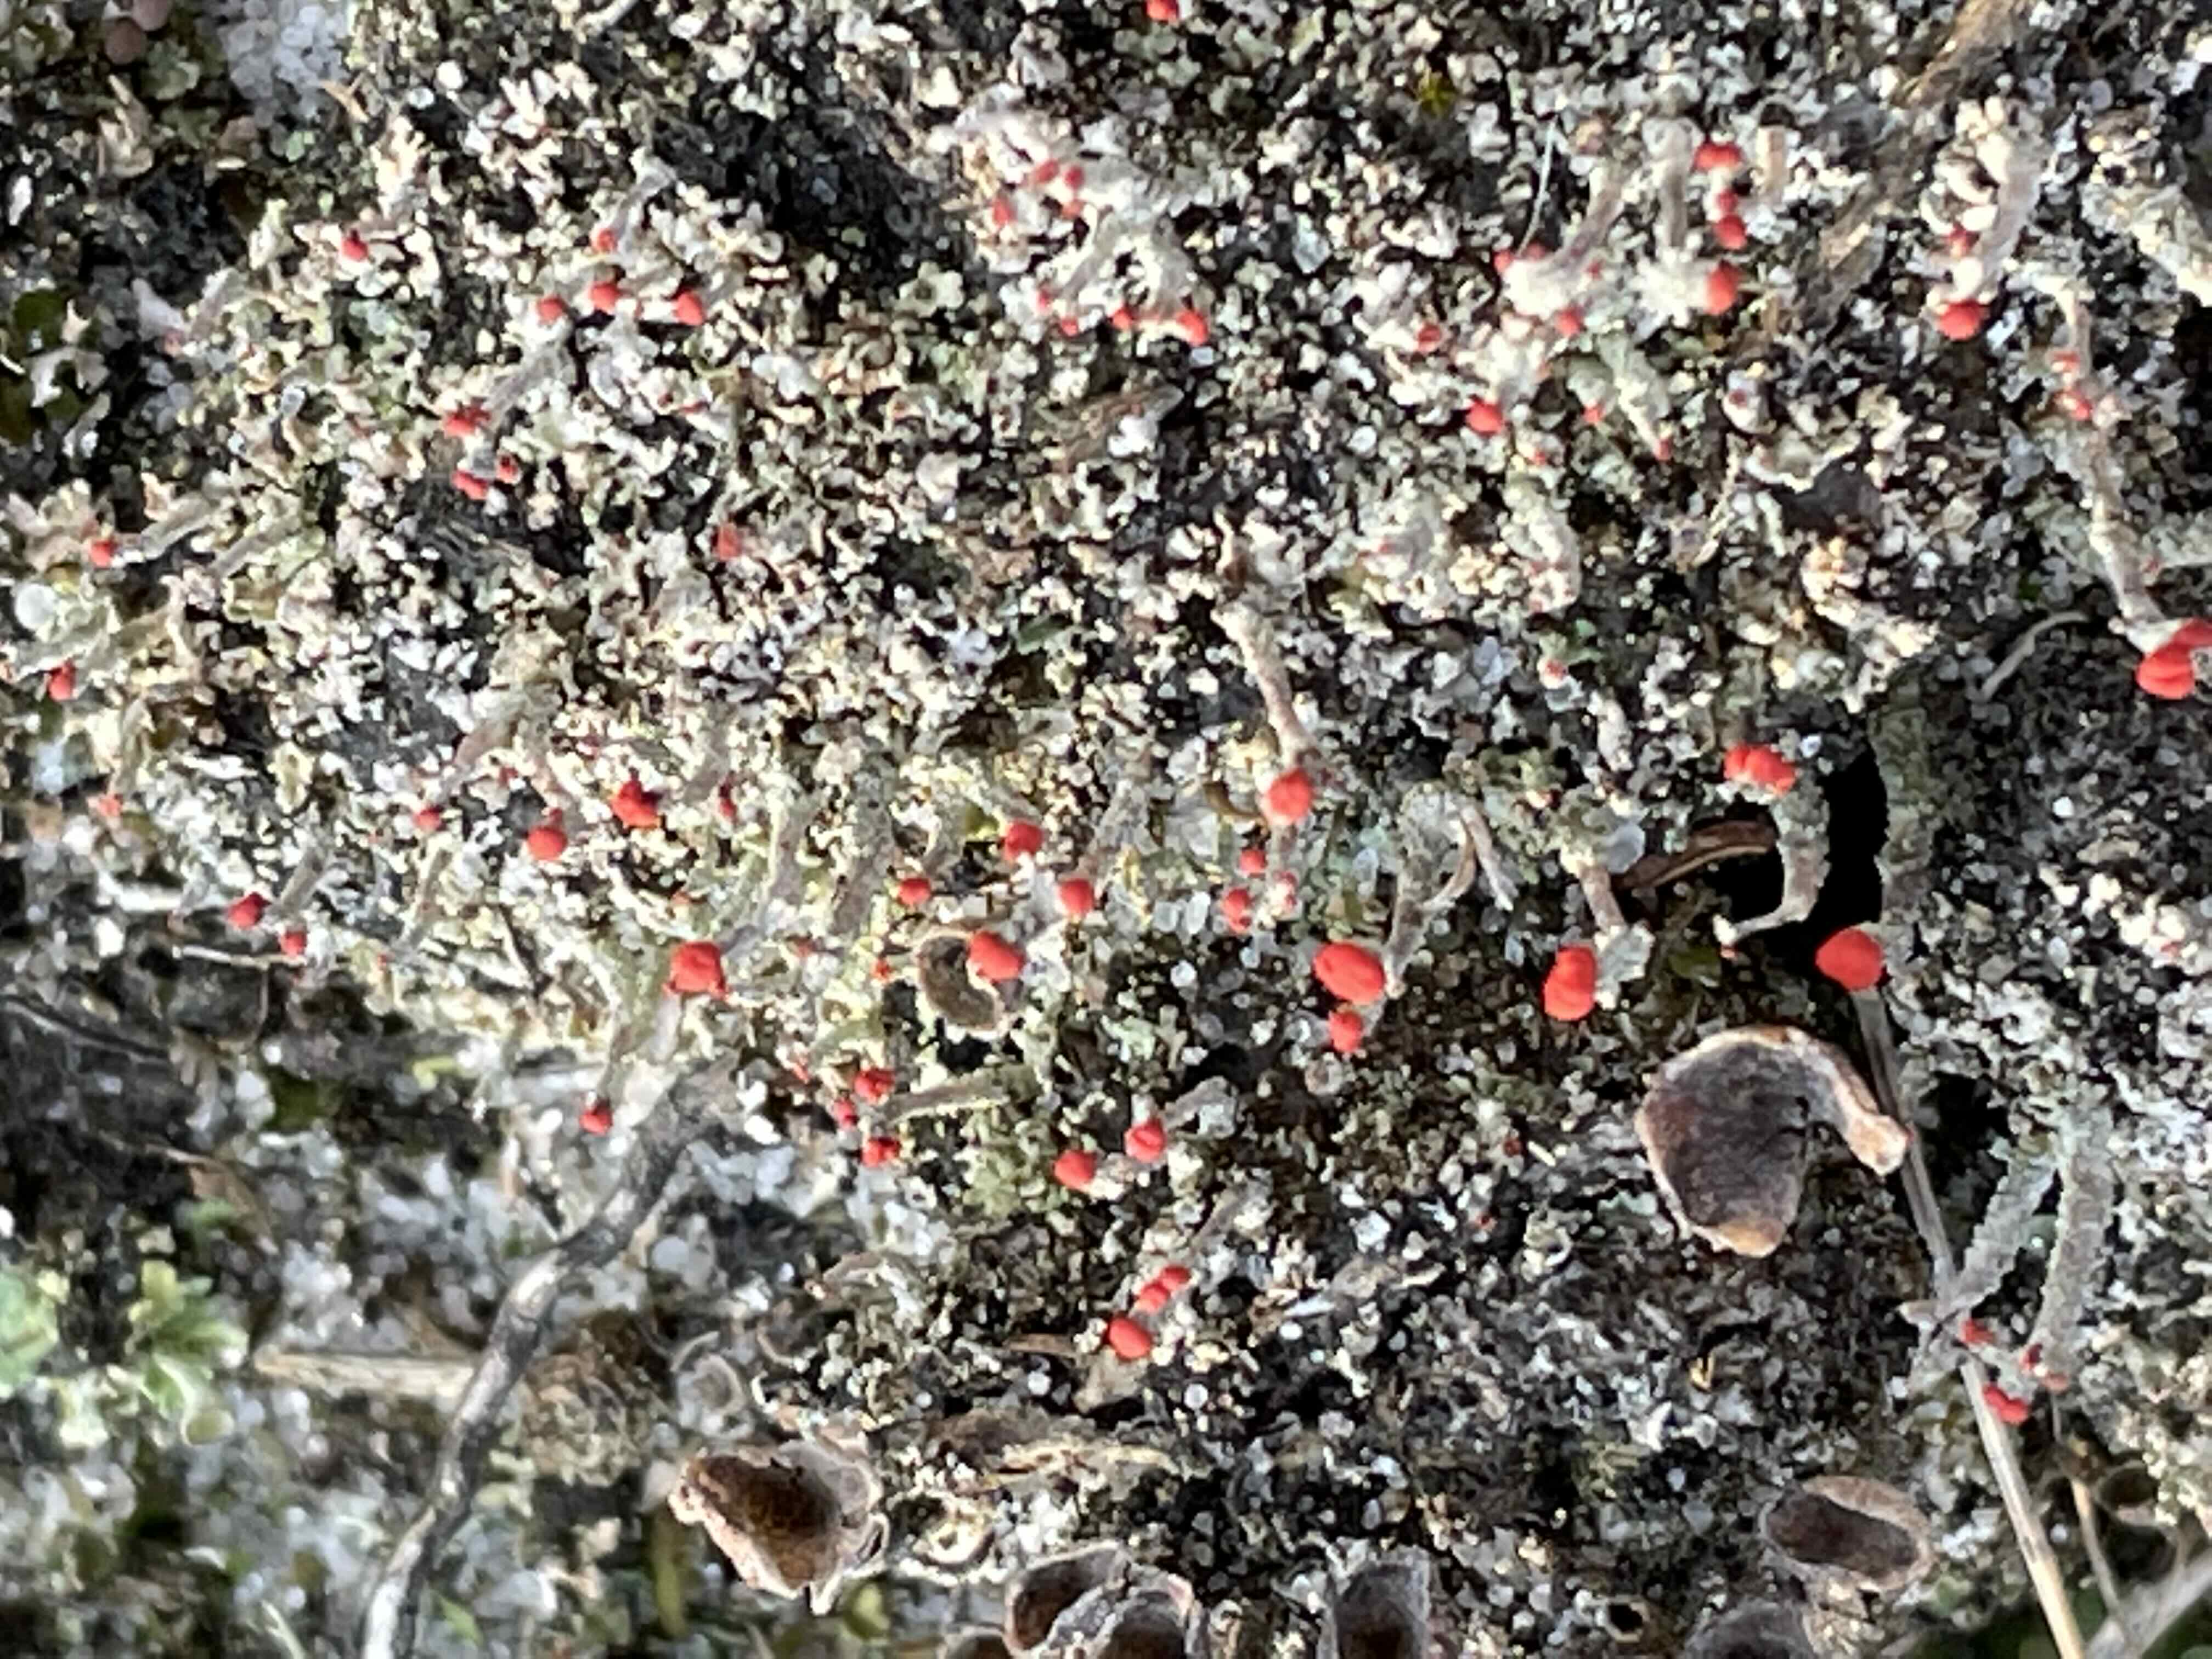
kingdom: Fungi
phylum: Ascomycota
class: Lecanoromycetes
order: Lecanorales
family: Cladoniaceae
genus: Cladonia
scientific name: Cladonia floerkeana
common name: lakrød bægerlav
